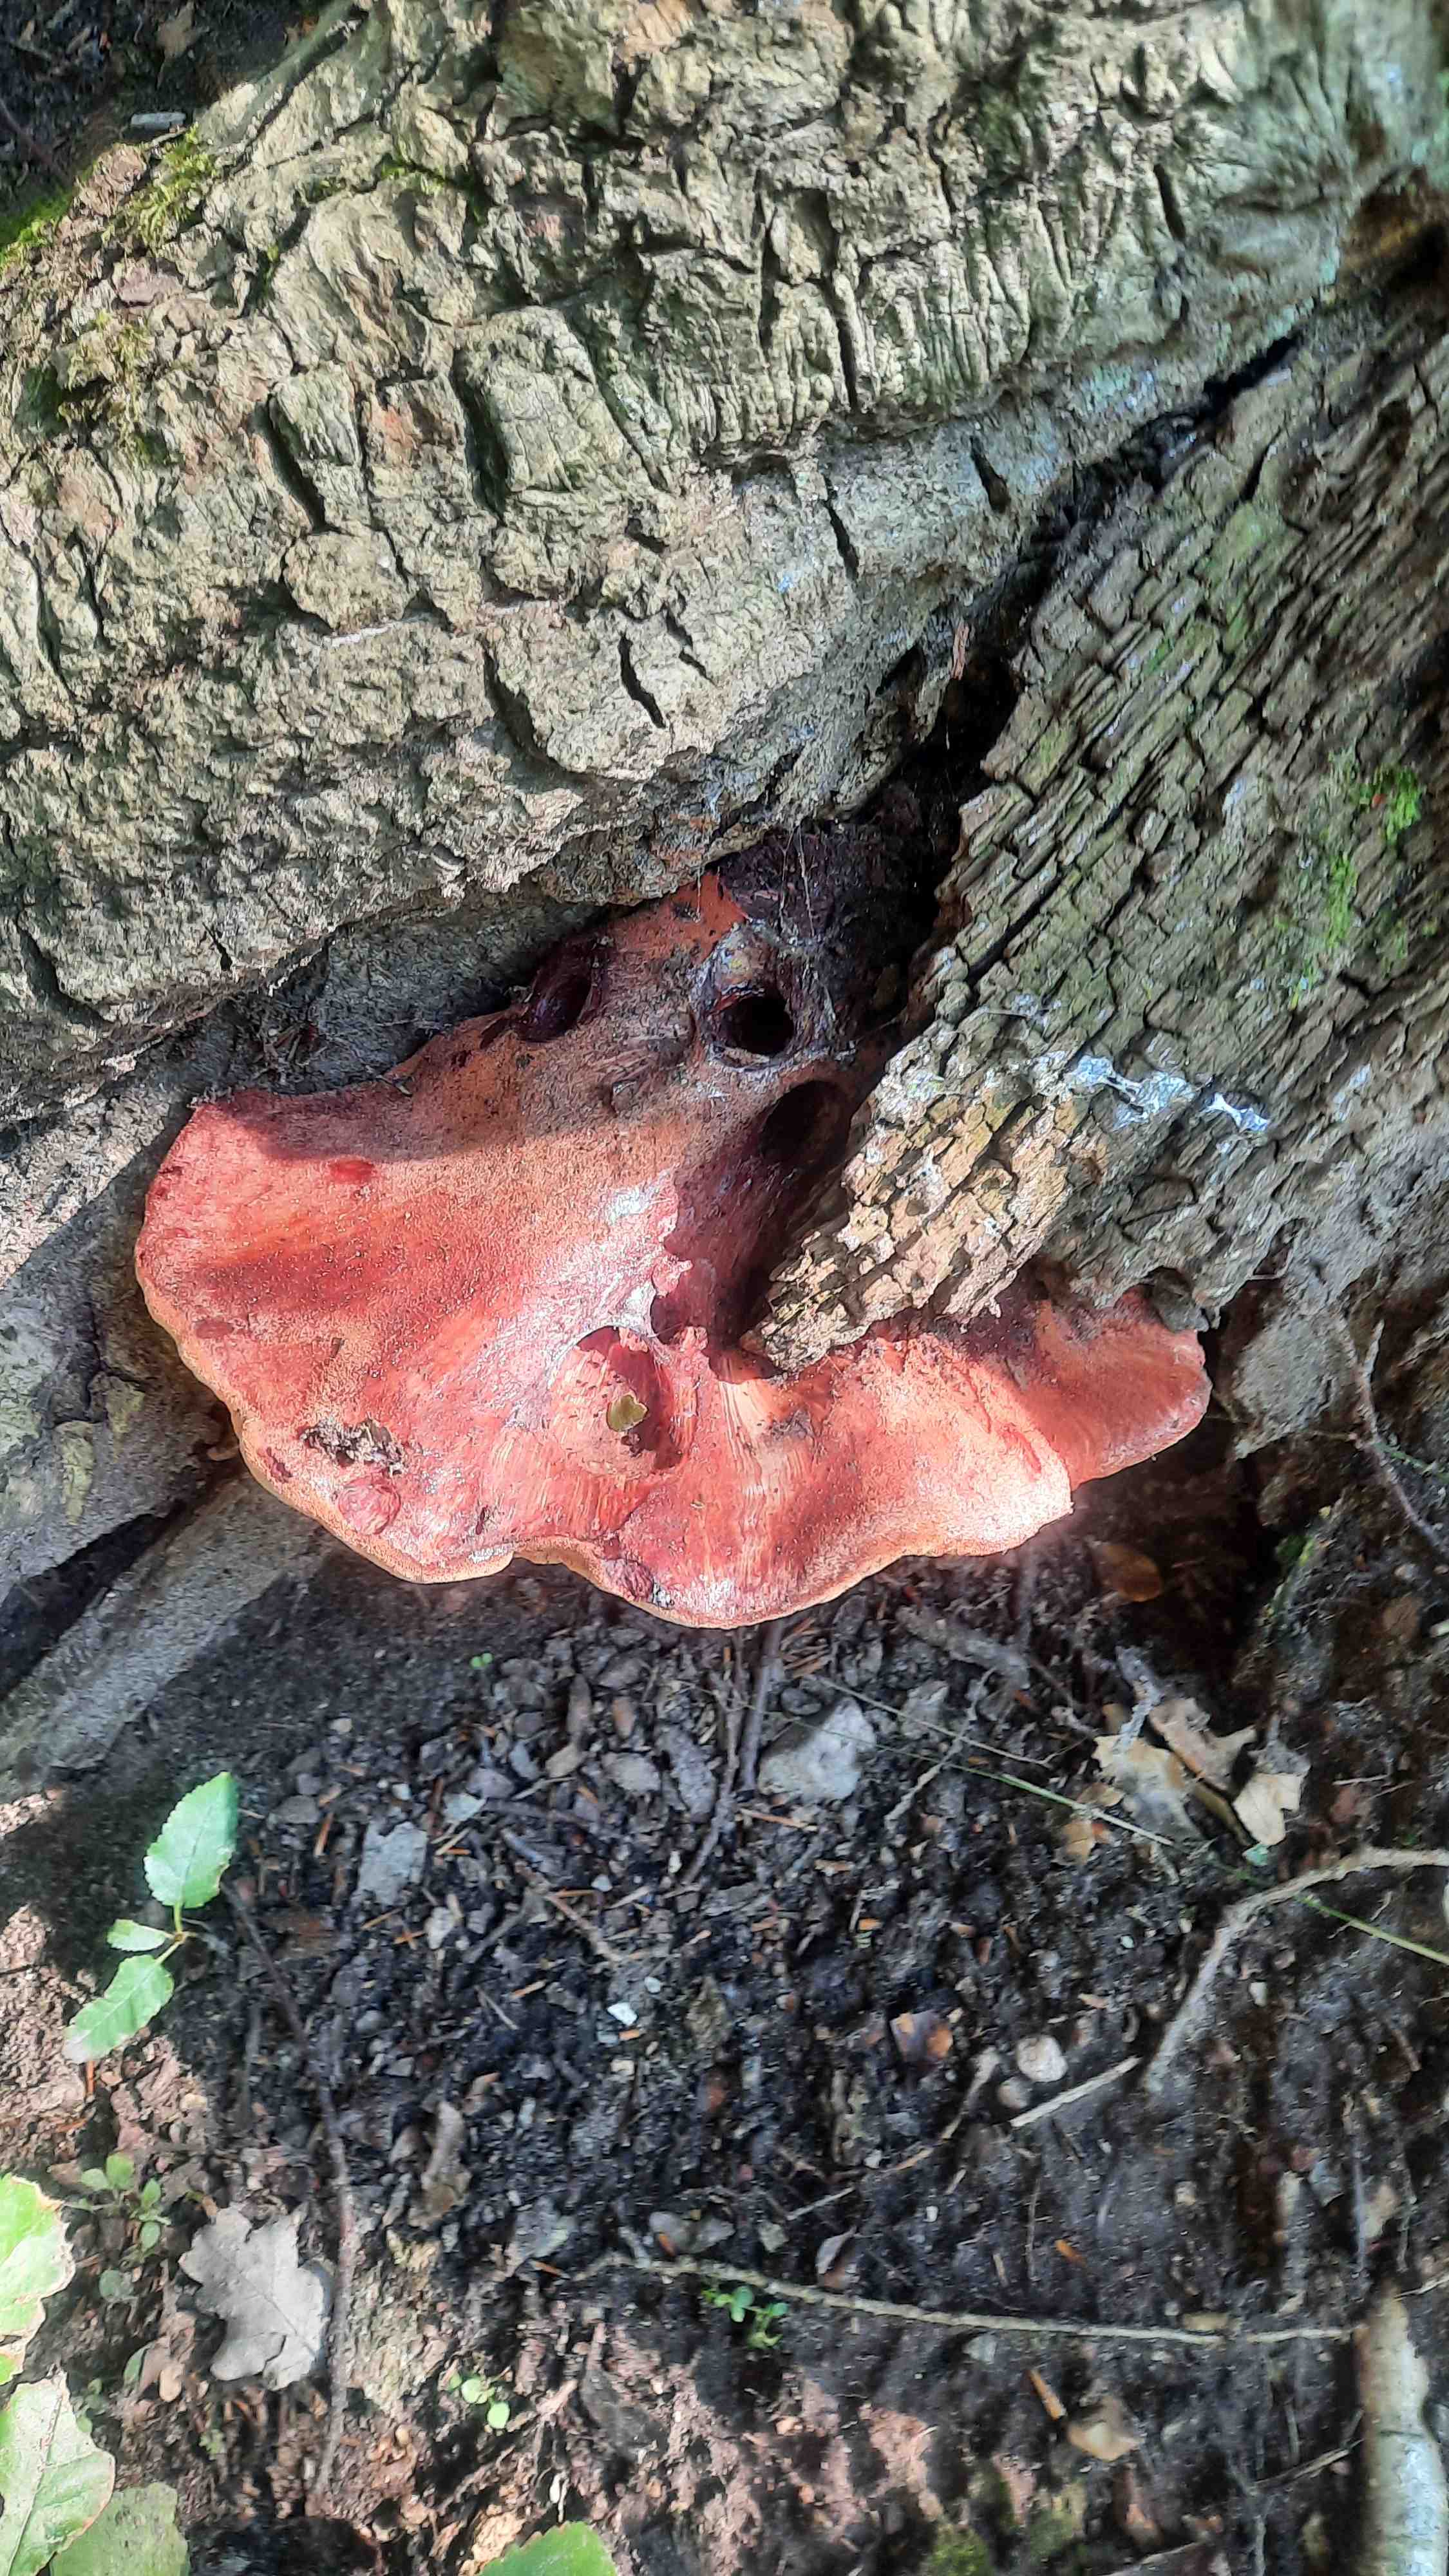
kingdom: Fungi
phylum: Basidiomycota
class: Agaricomycetes
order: Agaricales
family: Fistulinaceae
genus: Fistulina
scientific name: Fistulina hepatica
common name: oksetunge
